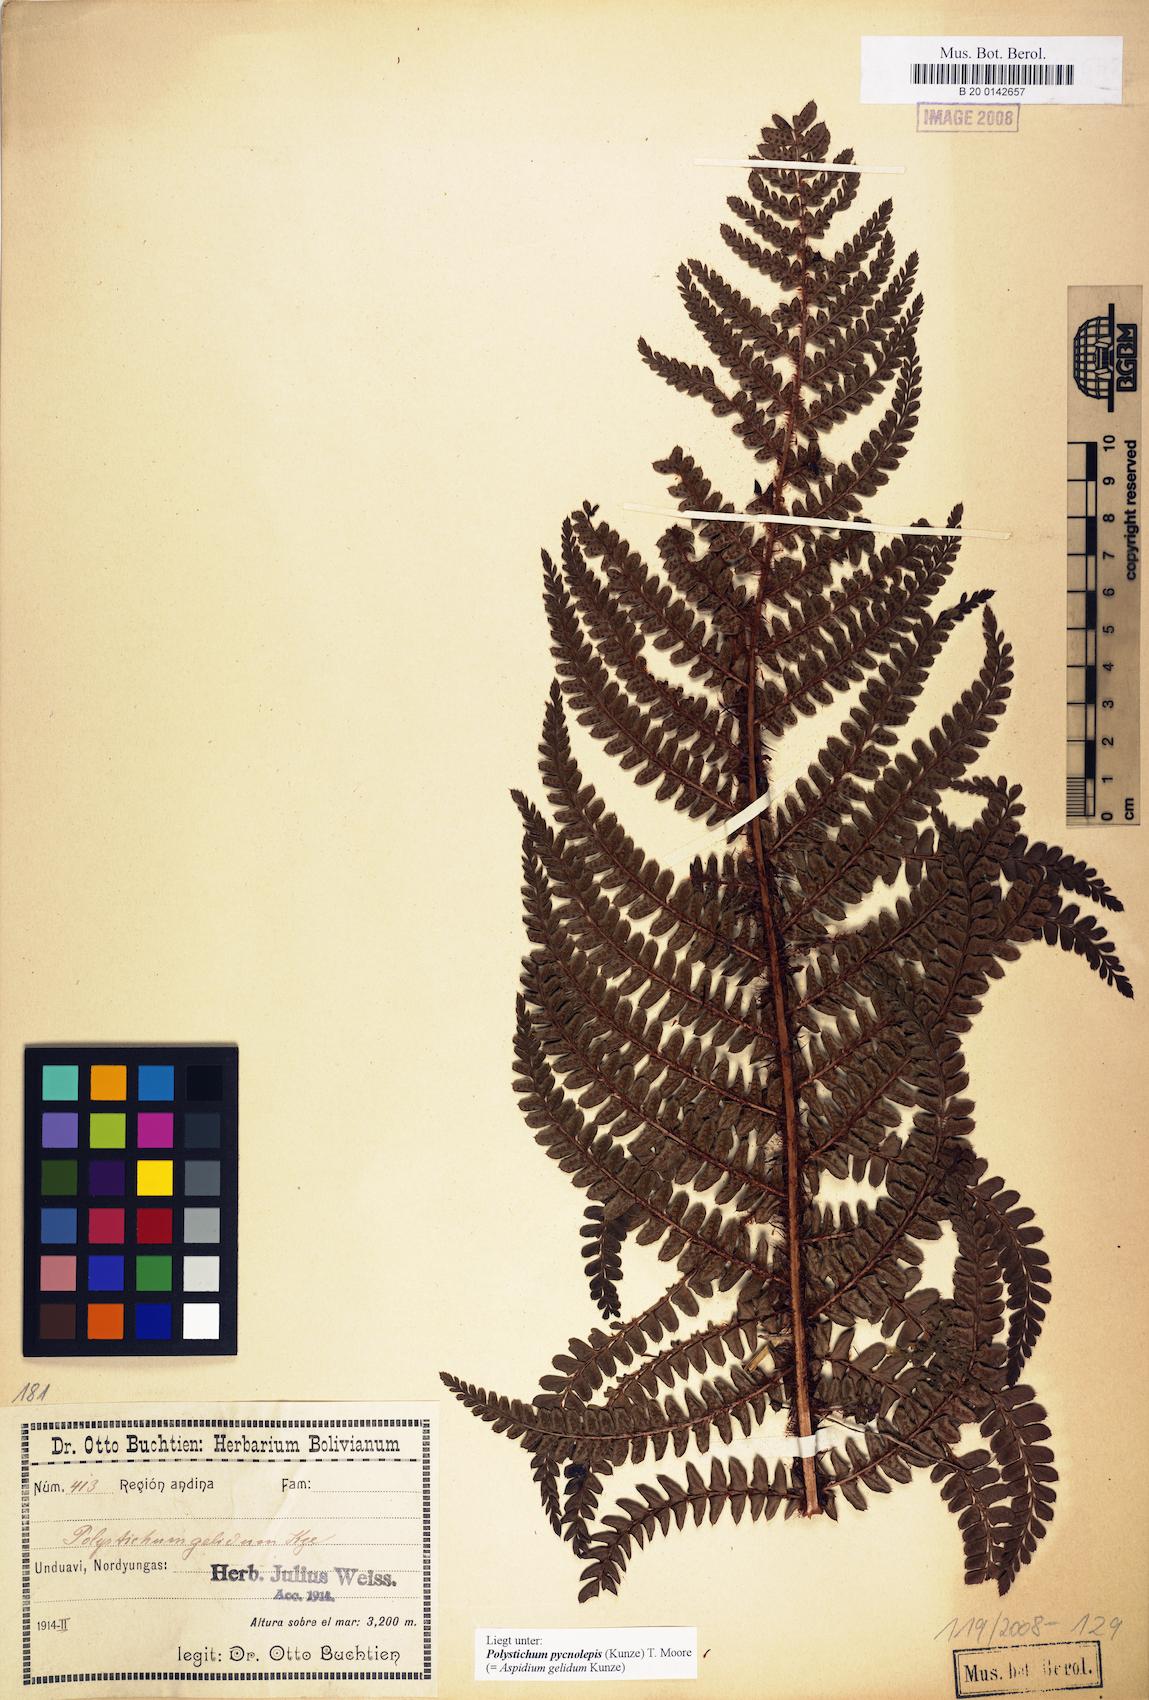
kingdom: Plantae
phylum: Tracheophyta
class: Polypodiopsida
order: Polypodiales
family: Dryopteridaceae
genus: Polystichum
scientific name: Polystichum pycnolepis
